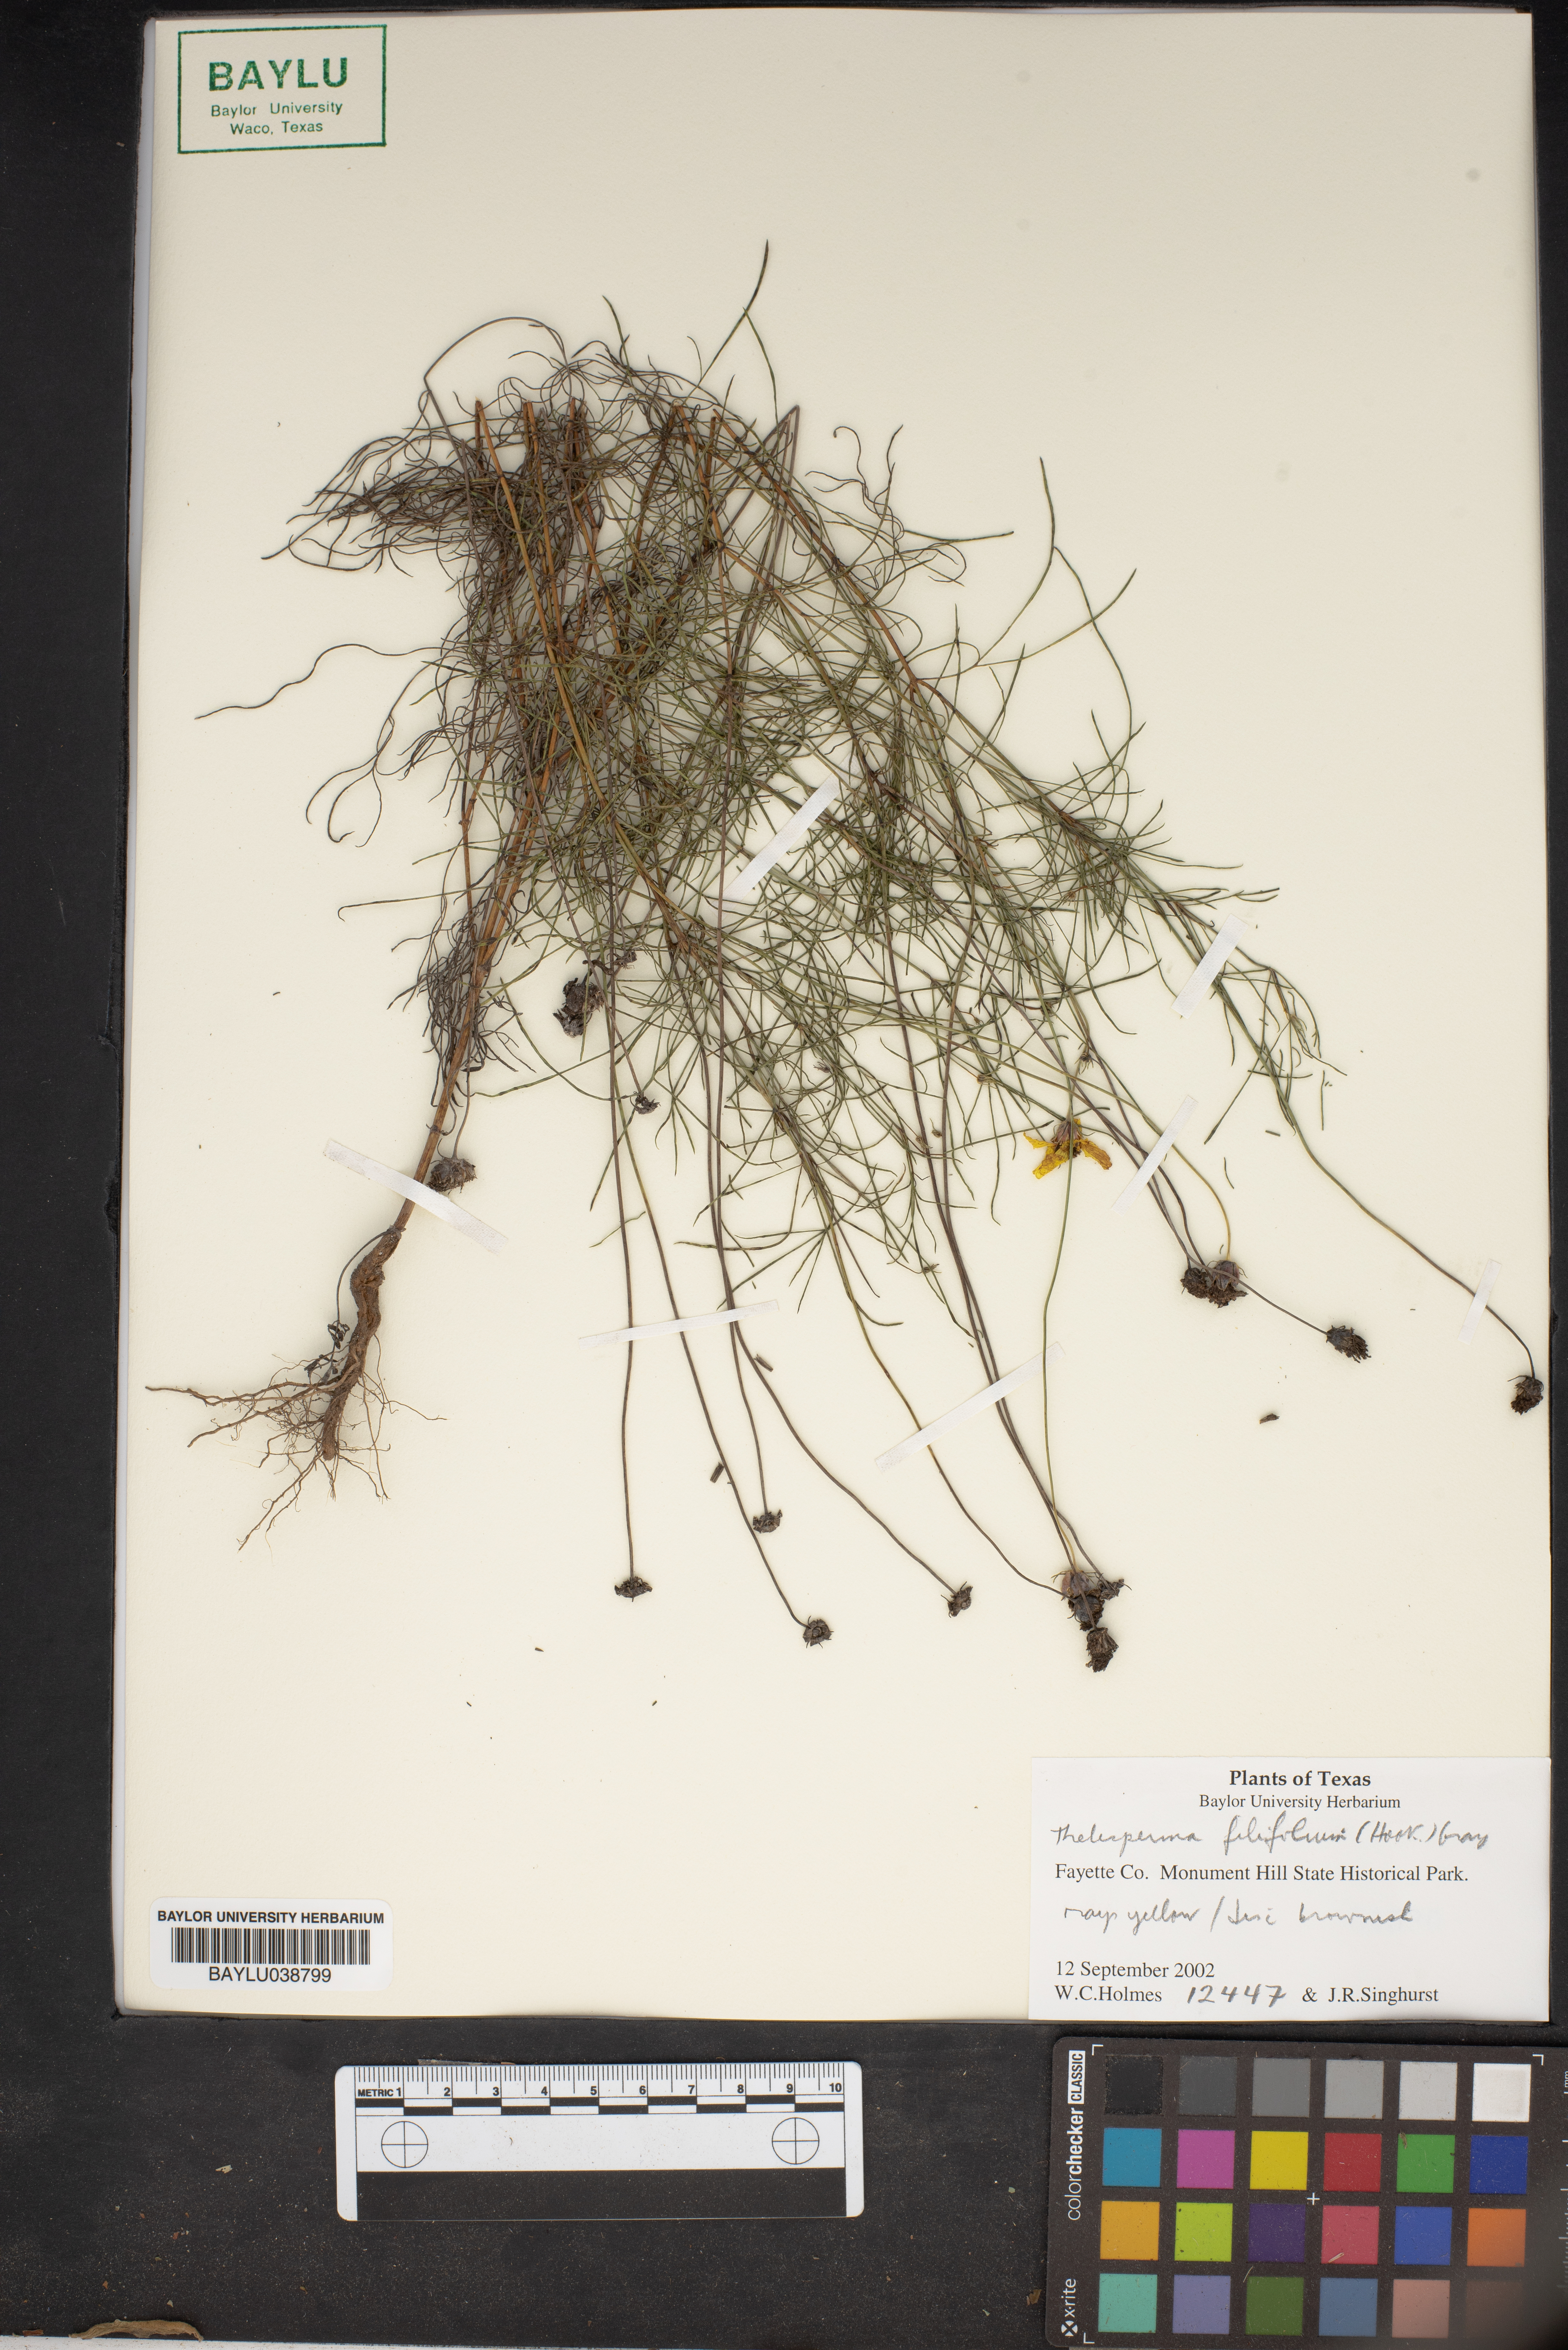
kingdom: Plantae
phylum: Tracheophyta
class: Magnoliopsida
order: Asterales
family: Asteraceae
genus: Thelesperma
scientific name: Thelesperma filifolium
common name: Stiff greenthread
